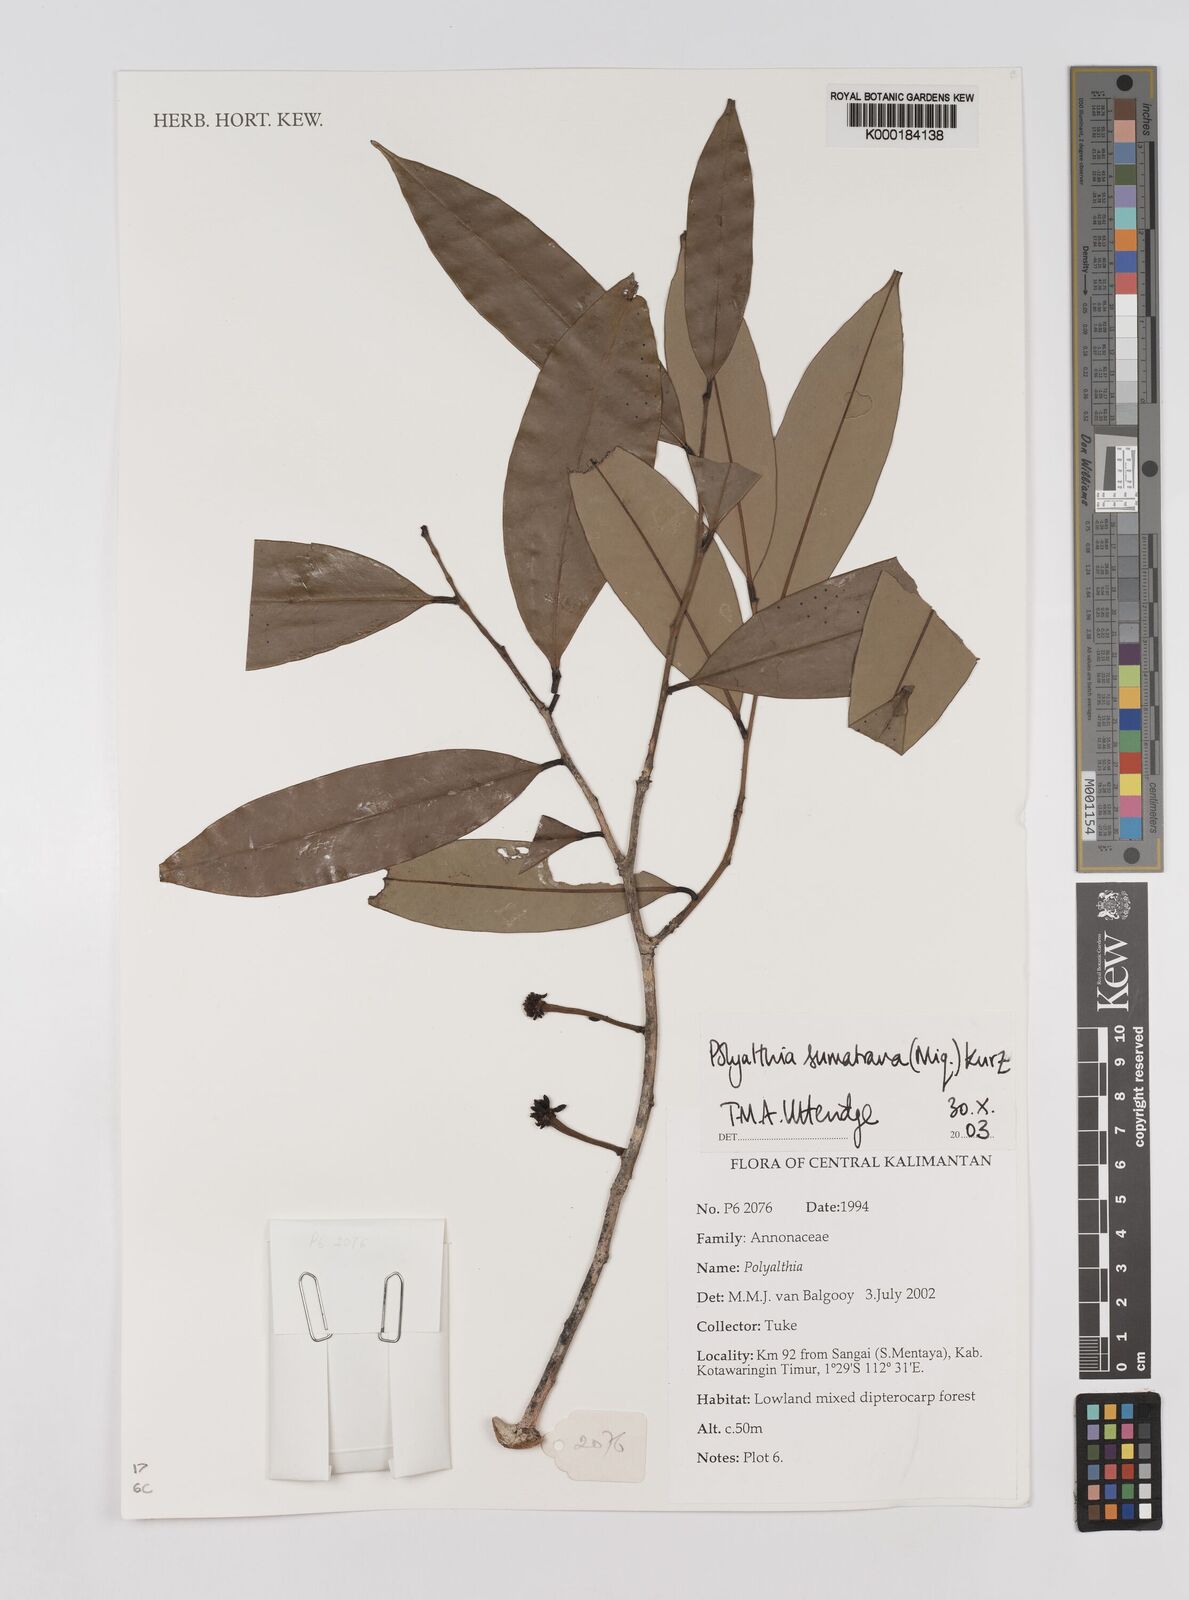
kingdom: Plantae
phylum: Tracheophyta
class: Magnoliopsida
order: Magnoliales
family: Annonaceae
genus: Maasia
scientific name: Maasia sumatrana
